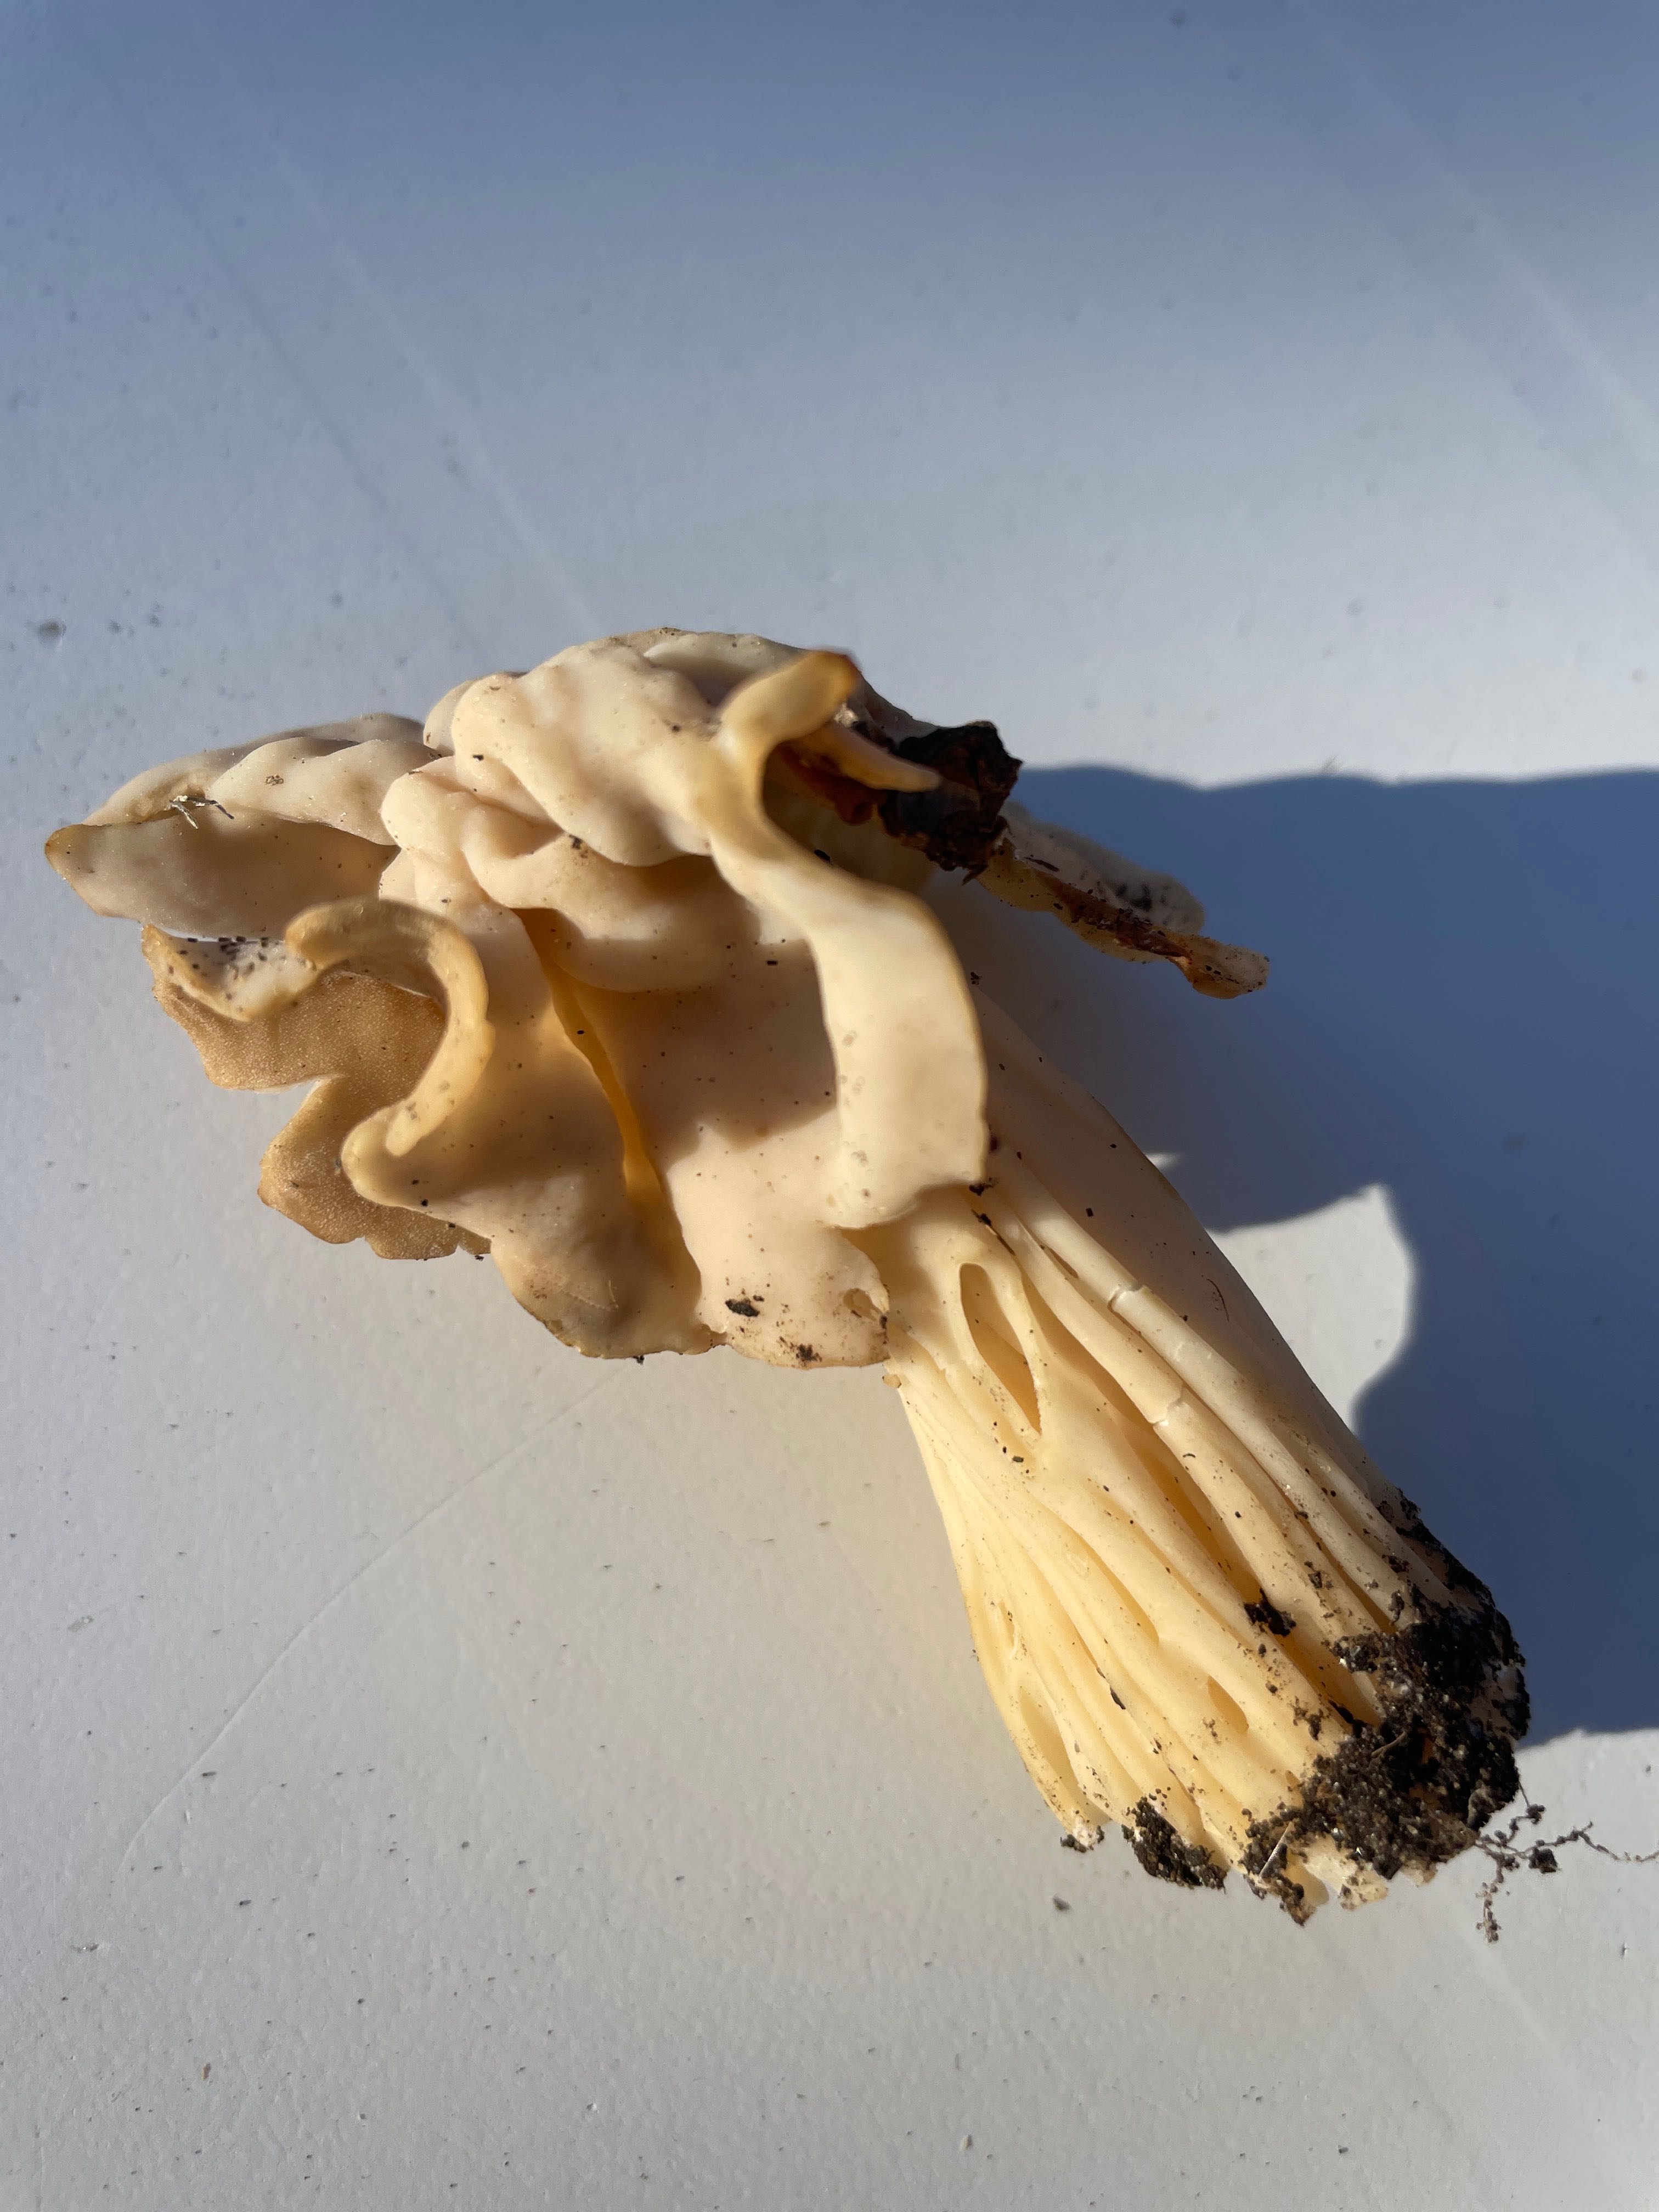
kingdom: Fungi
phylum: Ascomycota
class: Pezizomycetes
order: Pezizales
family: Helvellaceae
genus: Helvella
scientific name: Helvella crispa
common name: kruset foldhat
